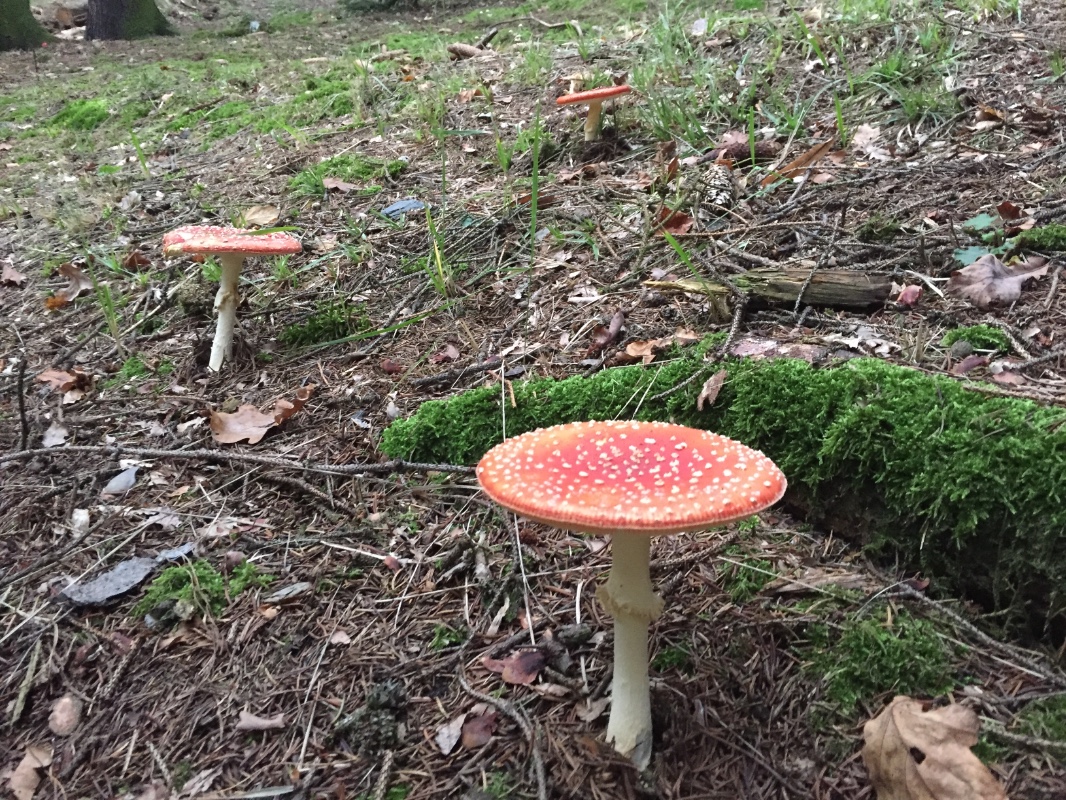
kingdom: Fungi
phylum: Basidiomycota
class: Agaricomycetes
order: Agaricales
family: Amanitaceae
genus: Amanita
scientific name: Amanita muscaria
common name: rød fluesvamp
